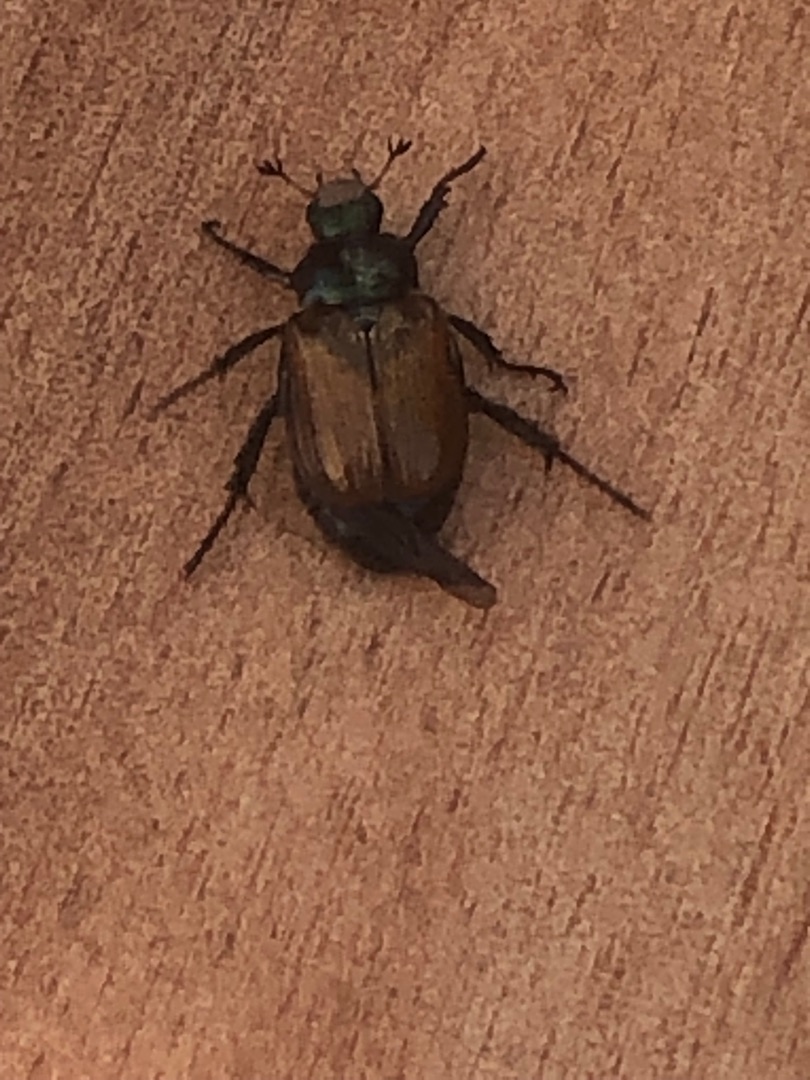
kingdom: Animalia
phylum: Arthropoda
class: Insecta
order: Coleoptera
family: Scarabaeidae
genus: Phyllopertha
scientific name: Phyllopertha horticola
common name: Gåsebille
